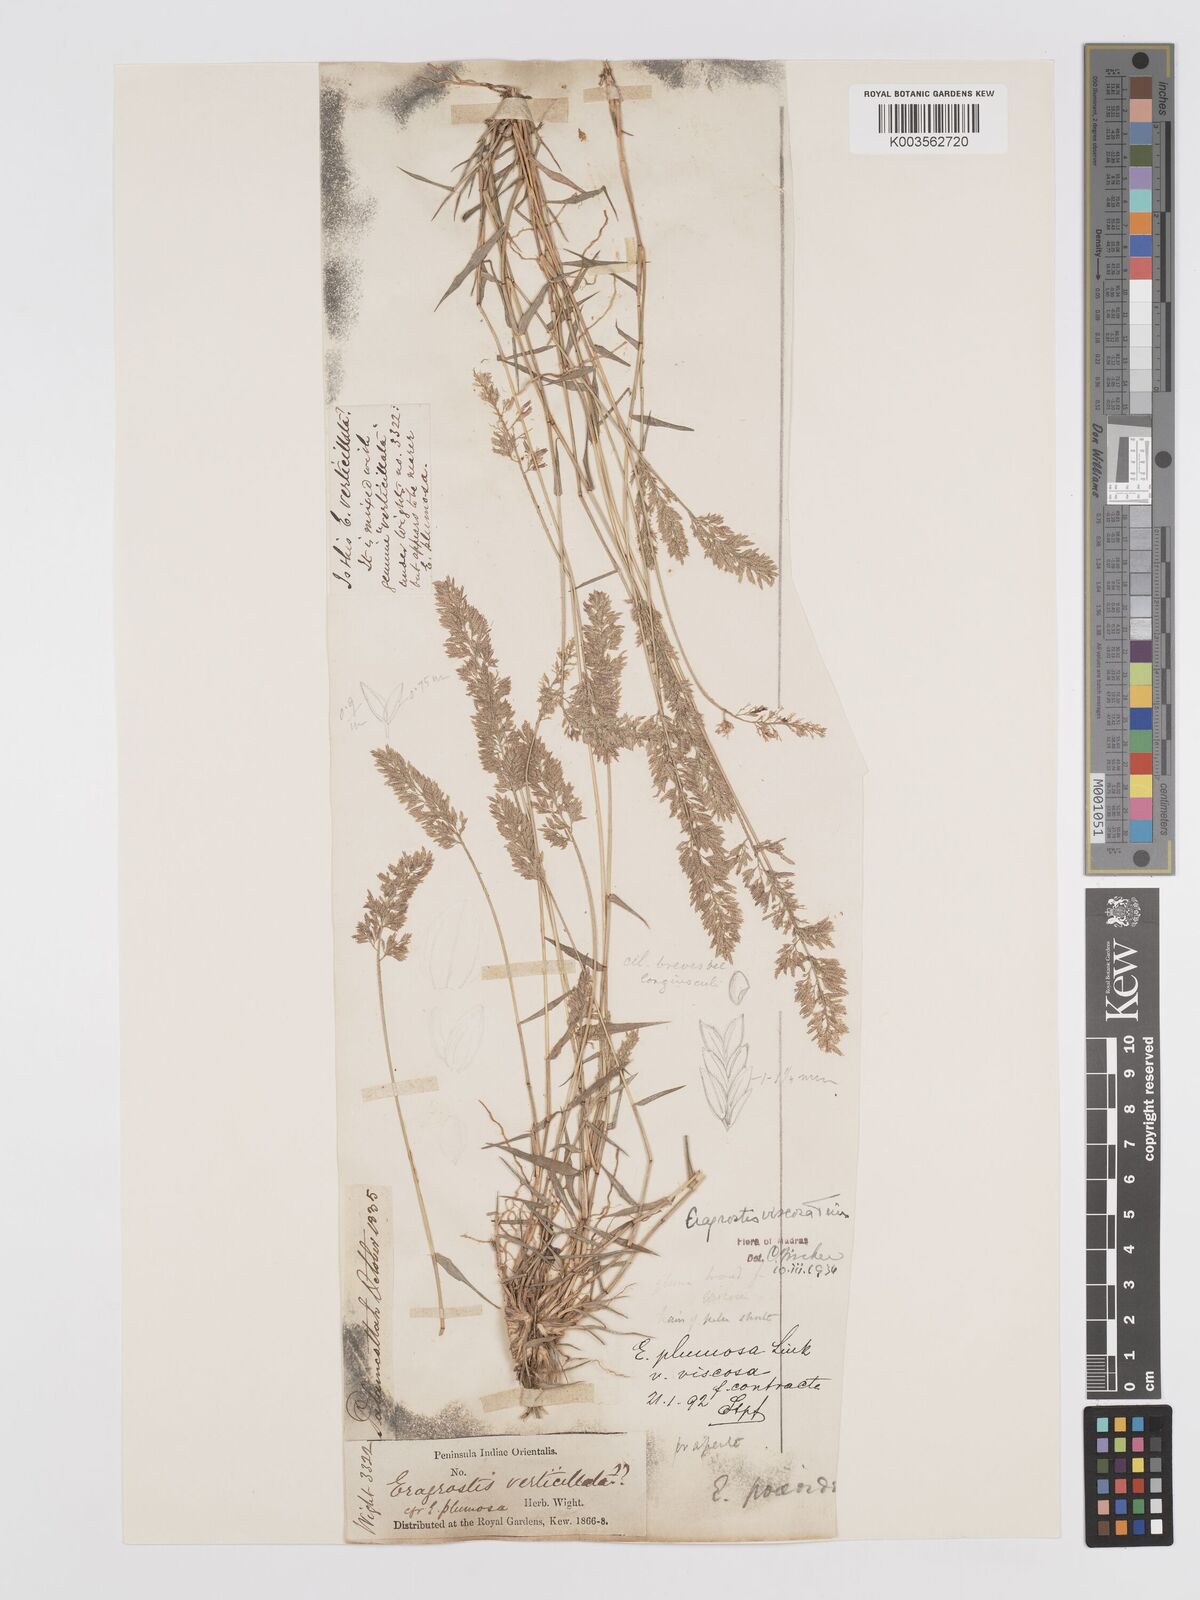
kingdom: Plantae
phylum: Tracheophyta
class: Liliopsida
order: Poales
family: Poaceae
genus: Eragrostis
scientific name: Eragrostis riparia
